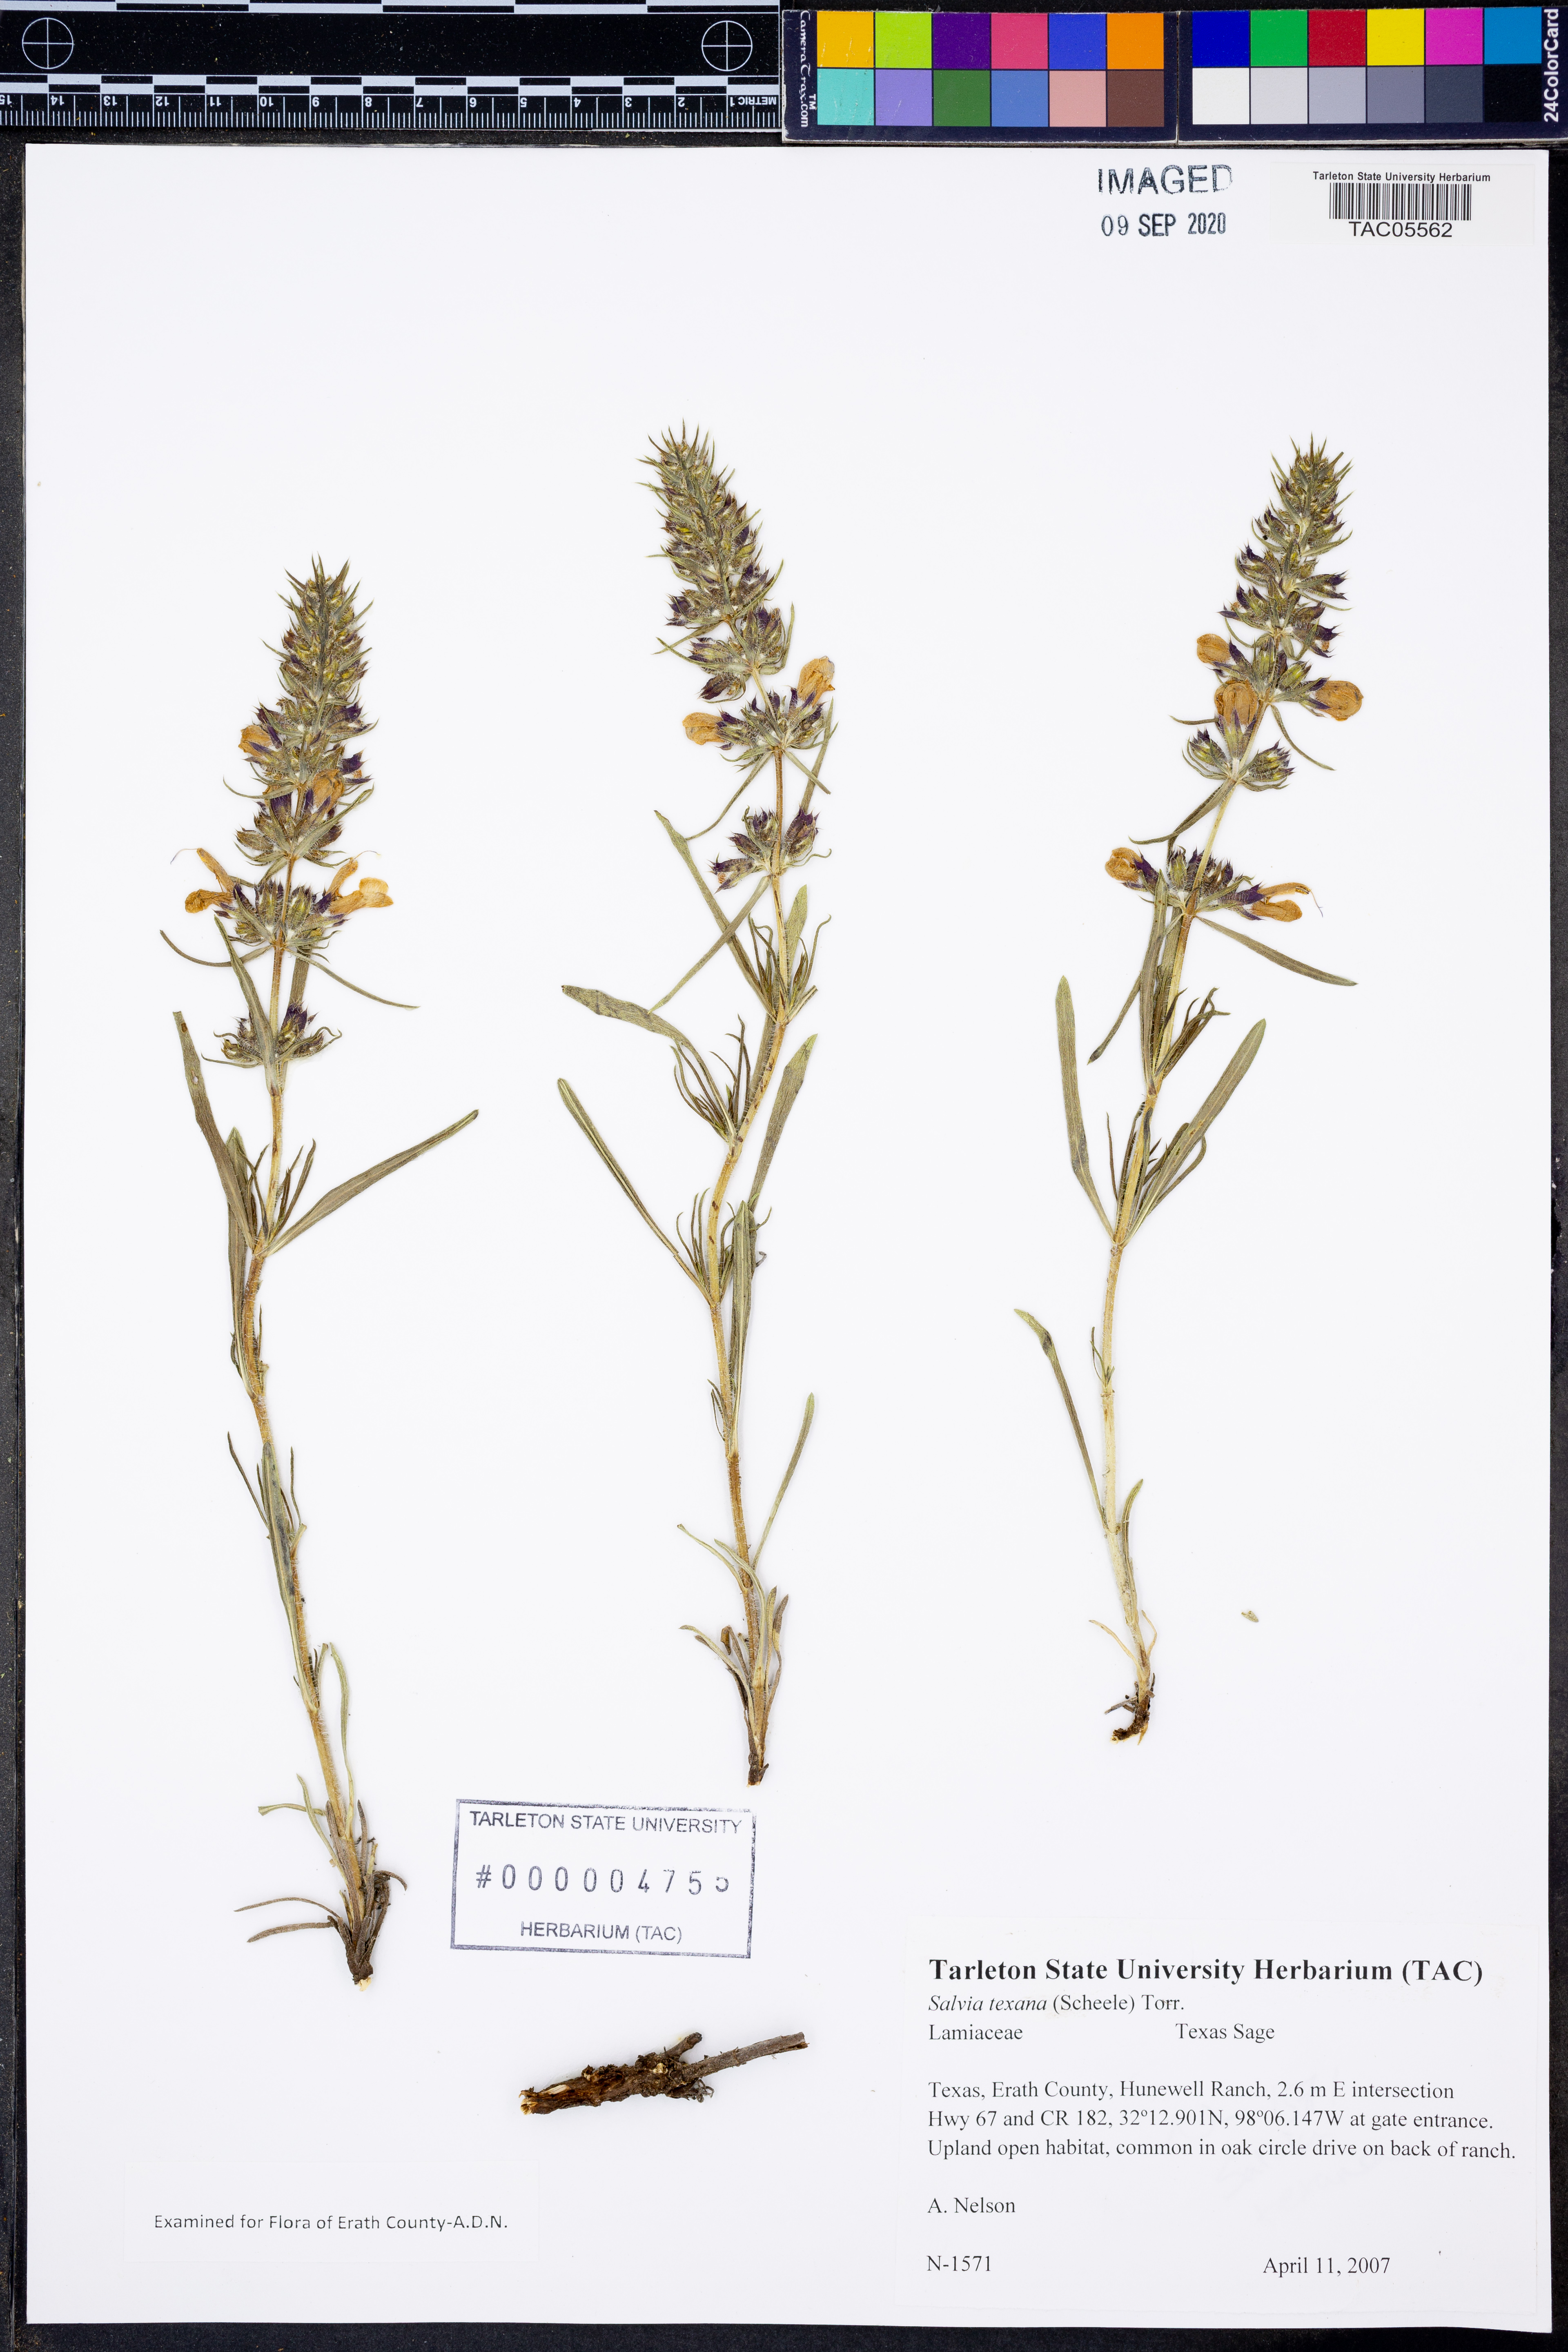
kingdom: Plantae
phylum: Tracheophyta
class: Magnoliopsida
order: Lamiales
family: Lamiaceae
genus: Salvia
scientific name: Salvia texana
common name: Texas sage
